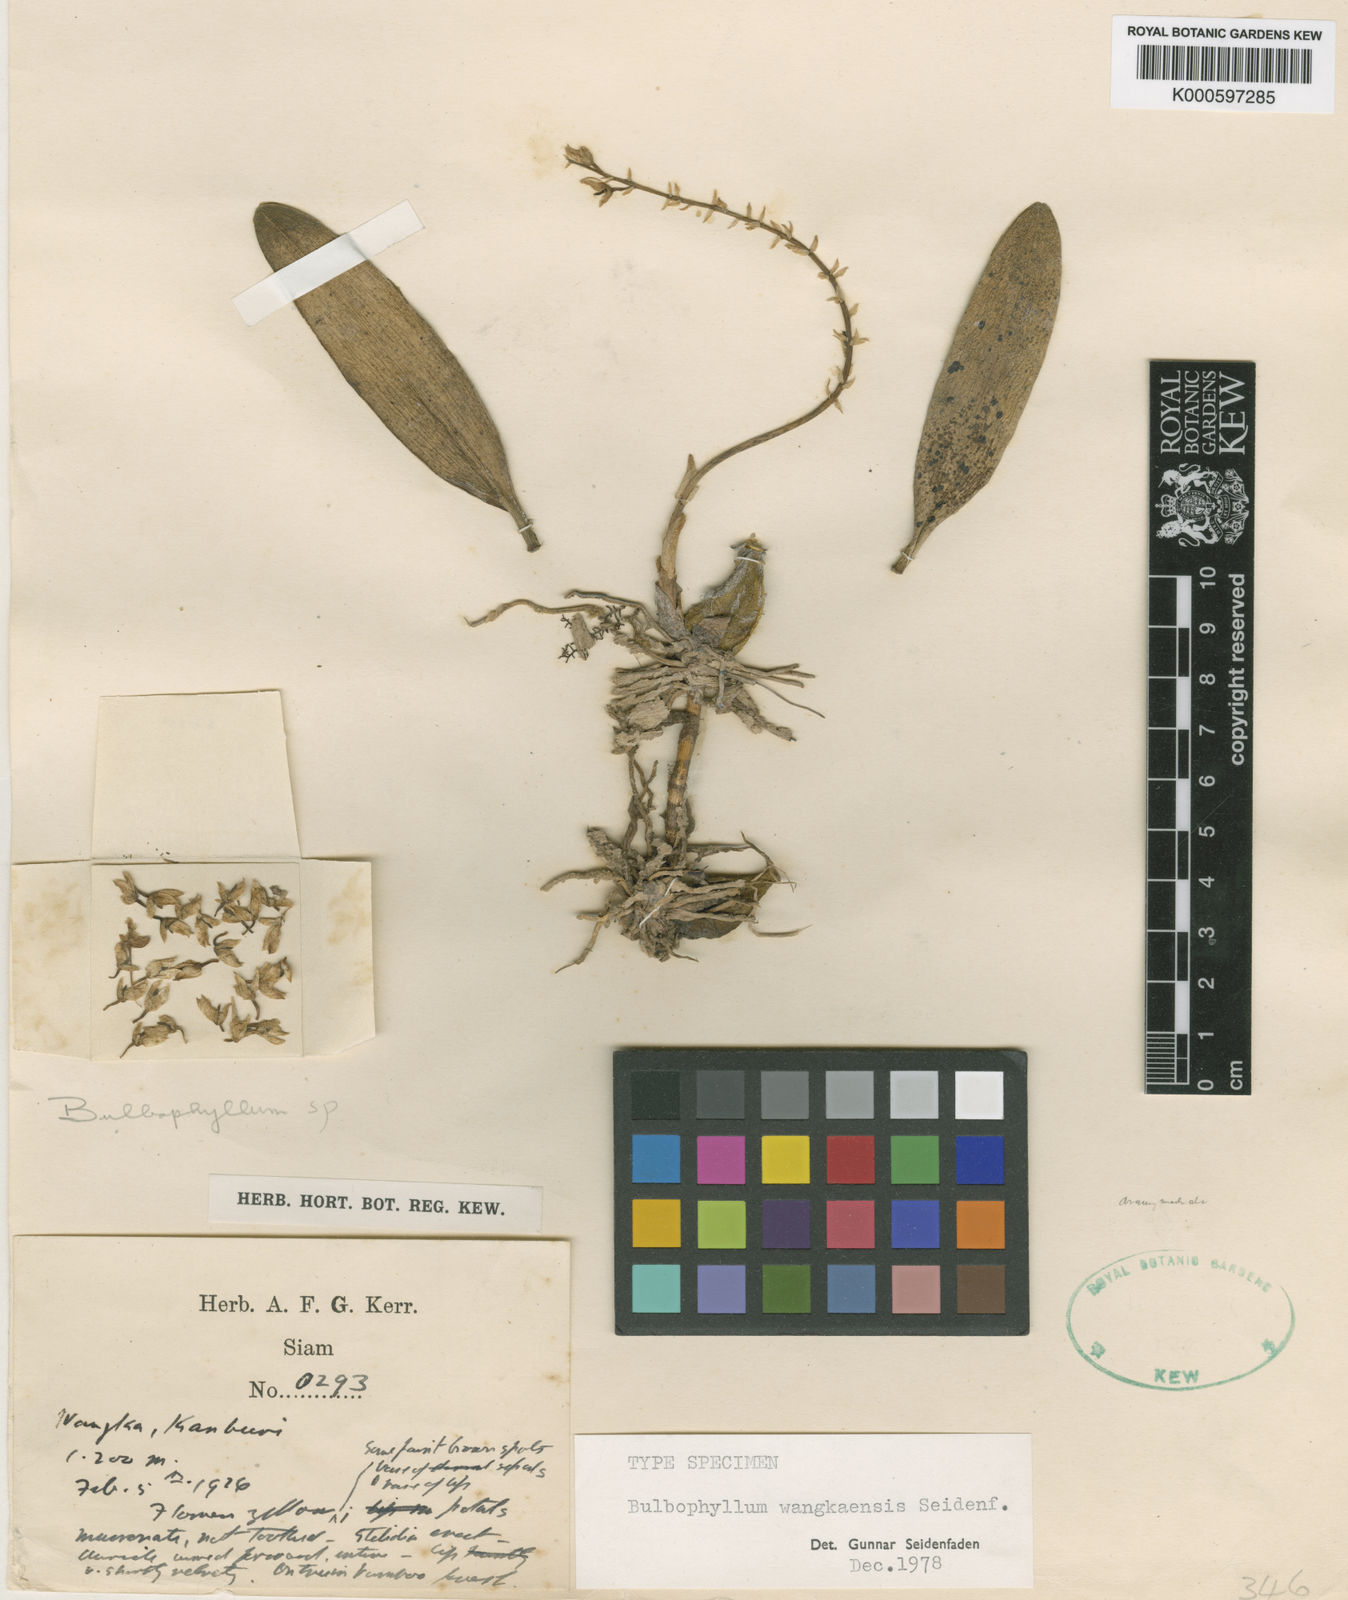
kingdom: Plantae
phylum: Tracheophyta
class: Liliopsida
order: Asparagales
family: Orchidaceae
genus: Bulbophyllum
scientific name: Bulbophyllum wangkaense
